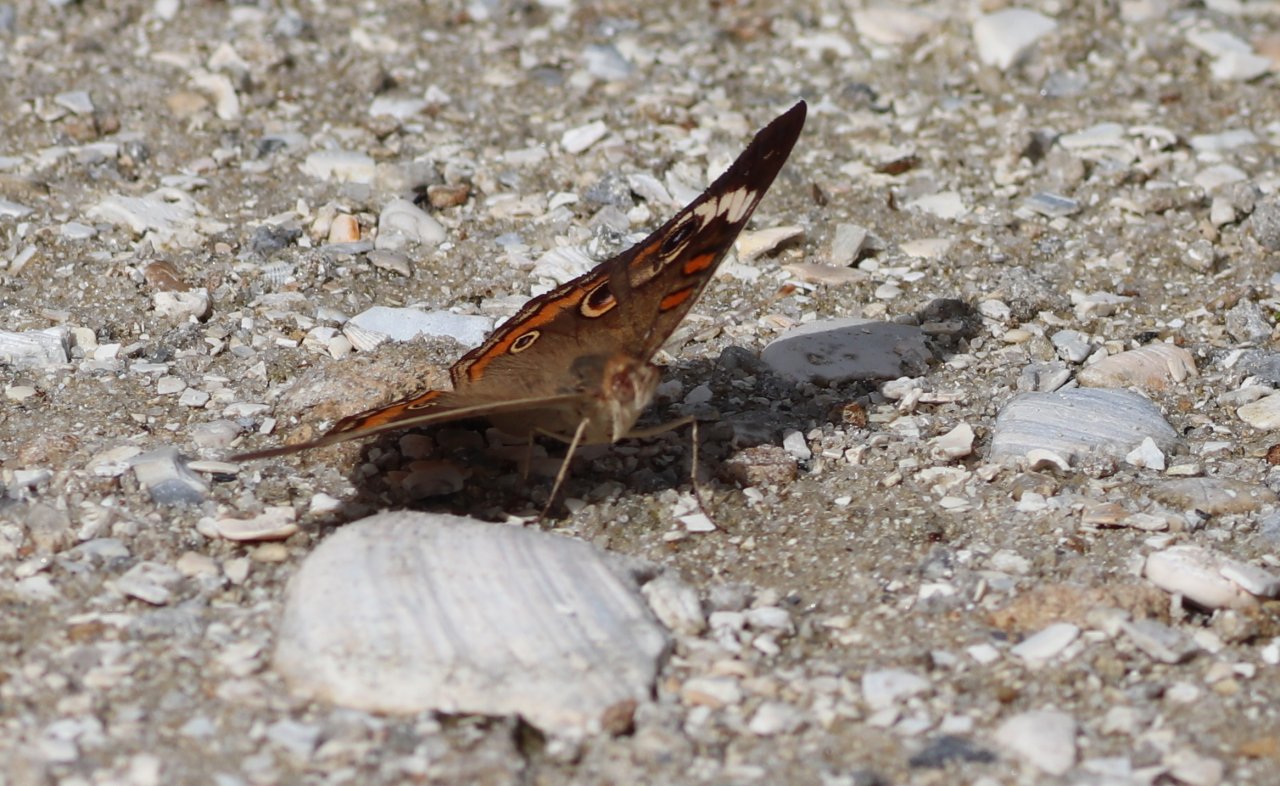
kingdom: Animalia
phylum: Arthropoda
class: Insecta
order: Lepidoptera
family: Nymphalidae
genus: Junonia
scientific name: Junonia coenia
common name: Common Buckeye
